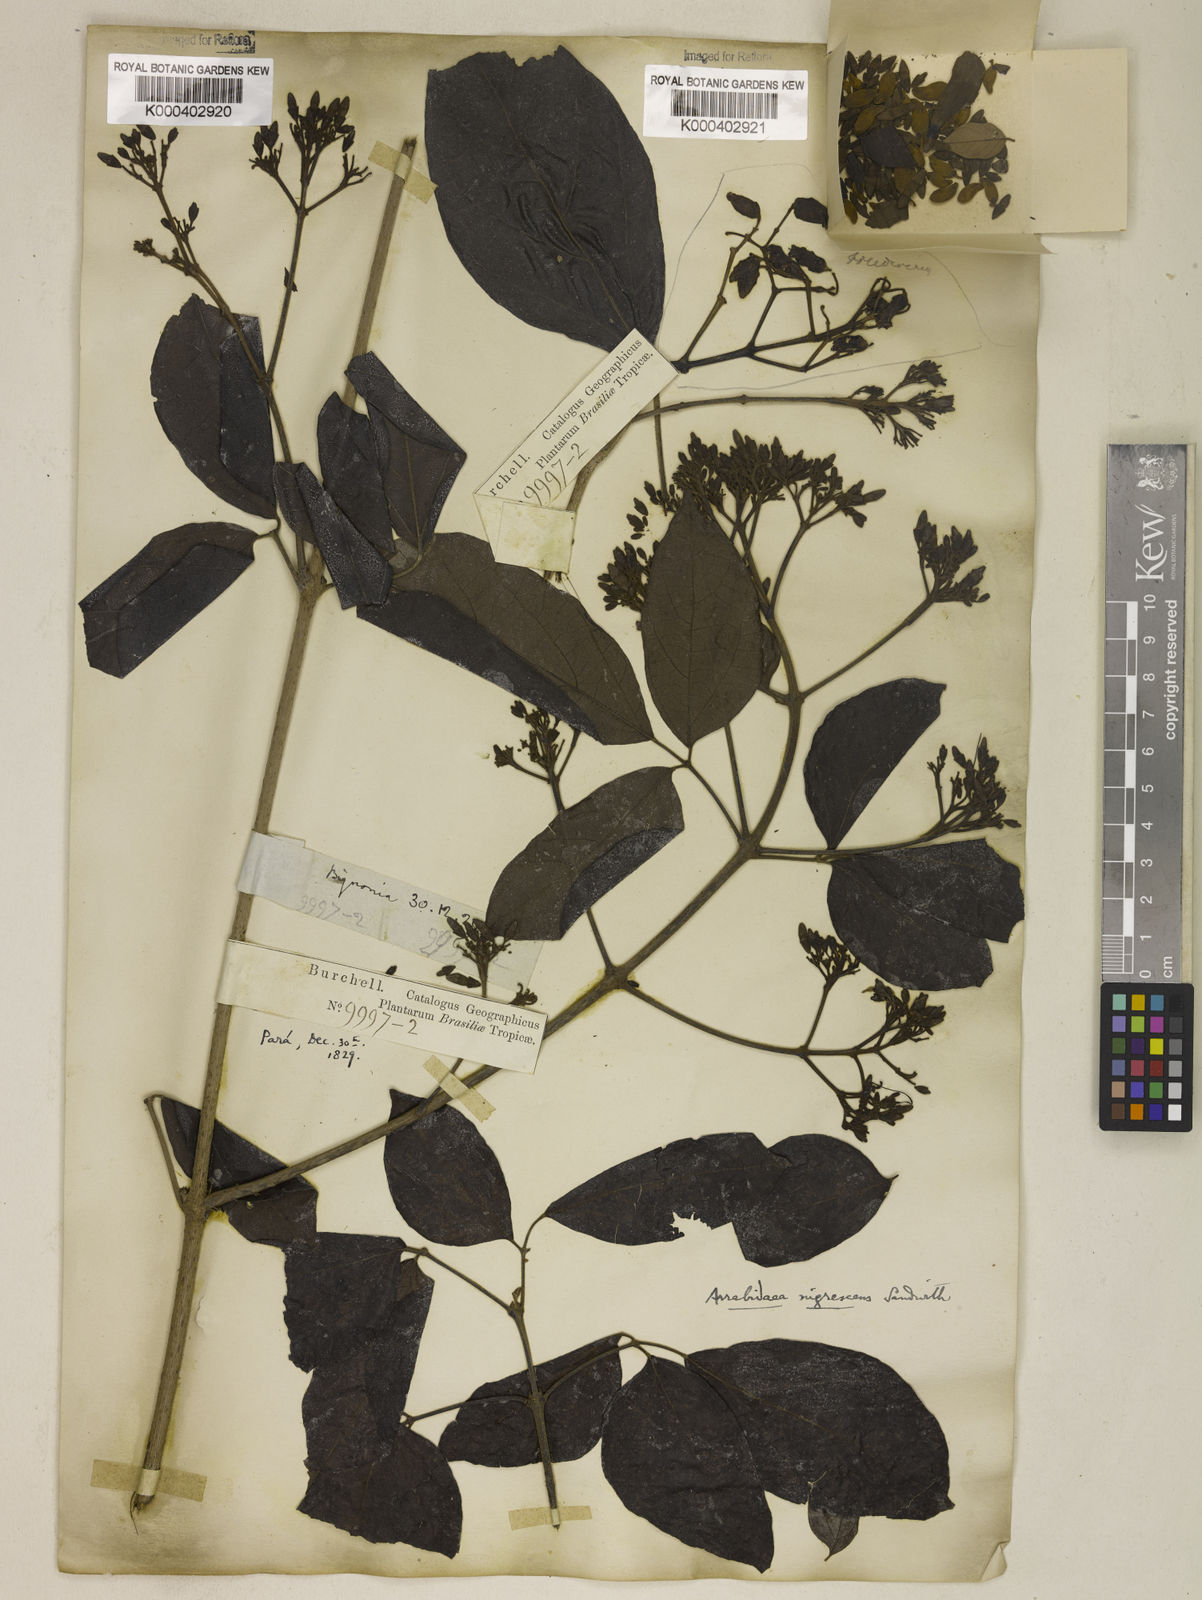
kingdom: Plantae
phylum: Tracheophyta
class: Magnoliopsida
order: Lamiales
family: Bignoniaceae
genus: Fridericia
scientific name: Fridericia nigrescens
